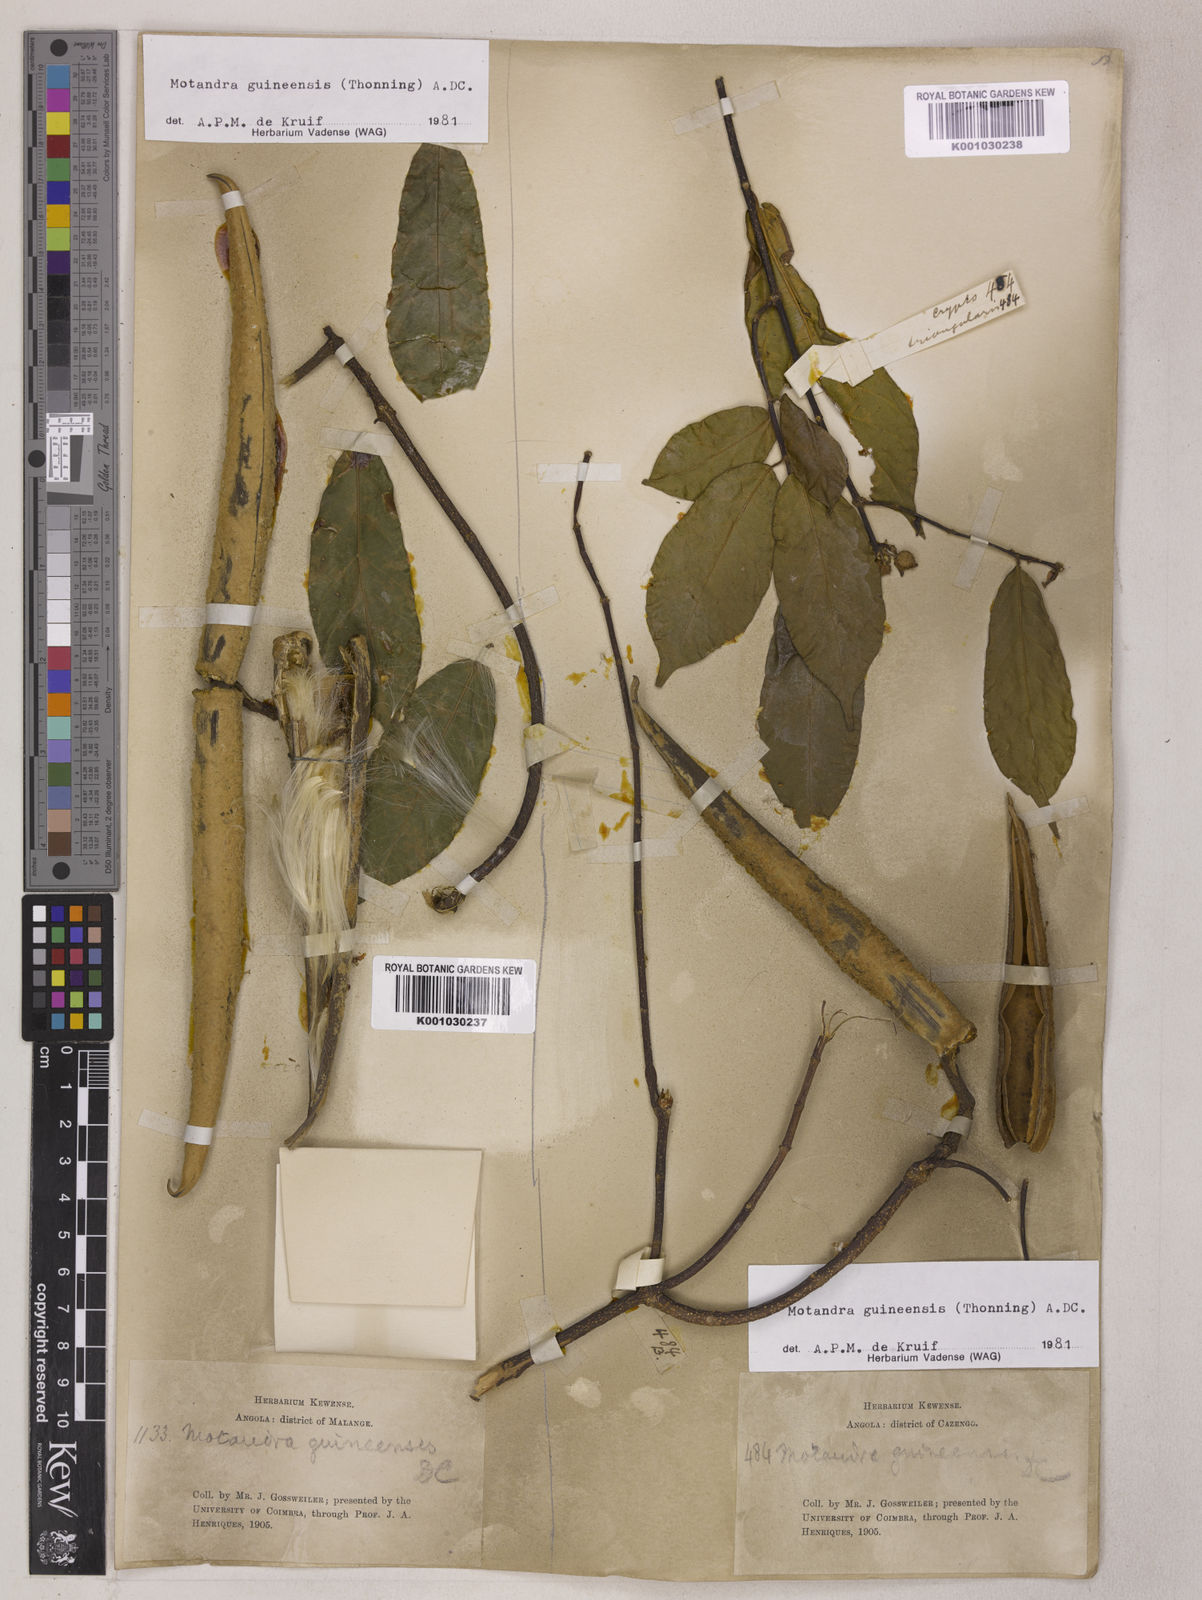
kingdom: Plantae
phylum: Tracheophyta
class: Magnoliopsida
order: Gentianales
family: Apocynaceae
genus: Motandra
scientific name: Motandra paniculata
